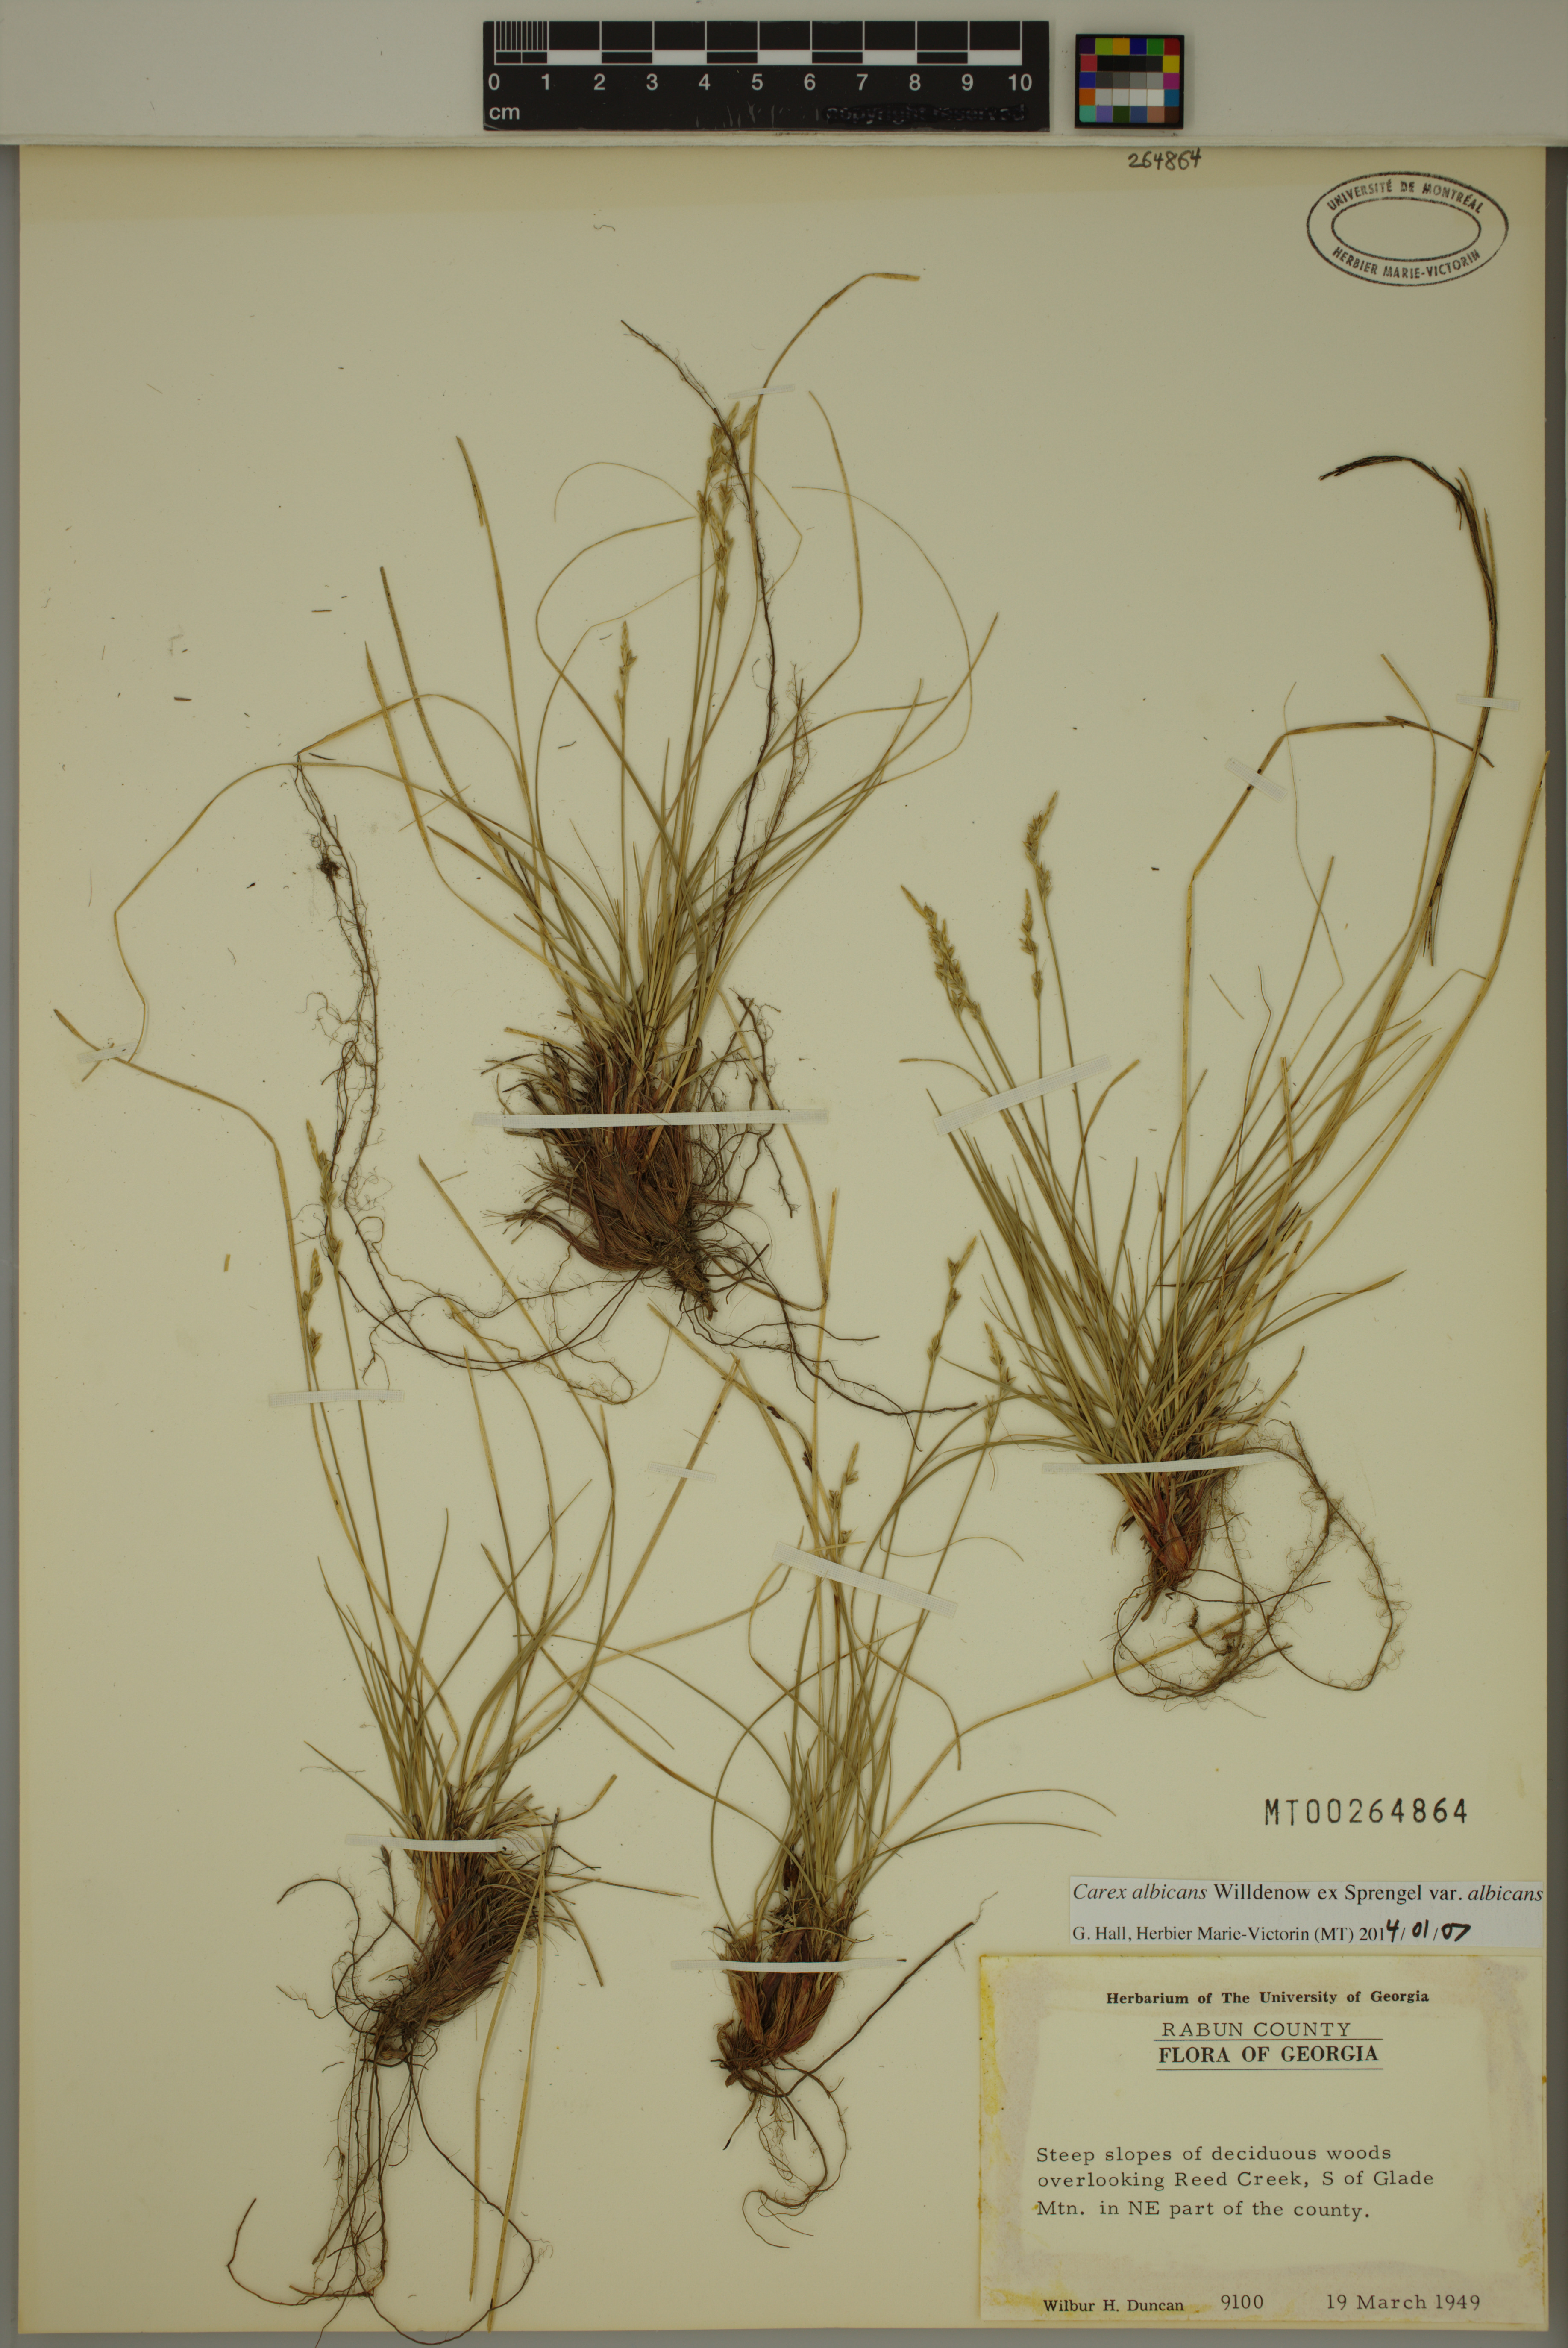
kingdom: Plantae
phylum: Tracheophyta
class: Liliopsida
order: Poales
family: Cyperaceae
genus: Carex
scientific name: Carex albicans
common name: Bellow-beaked sedge
